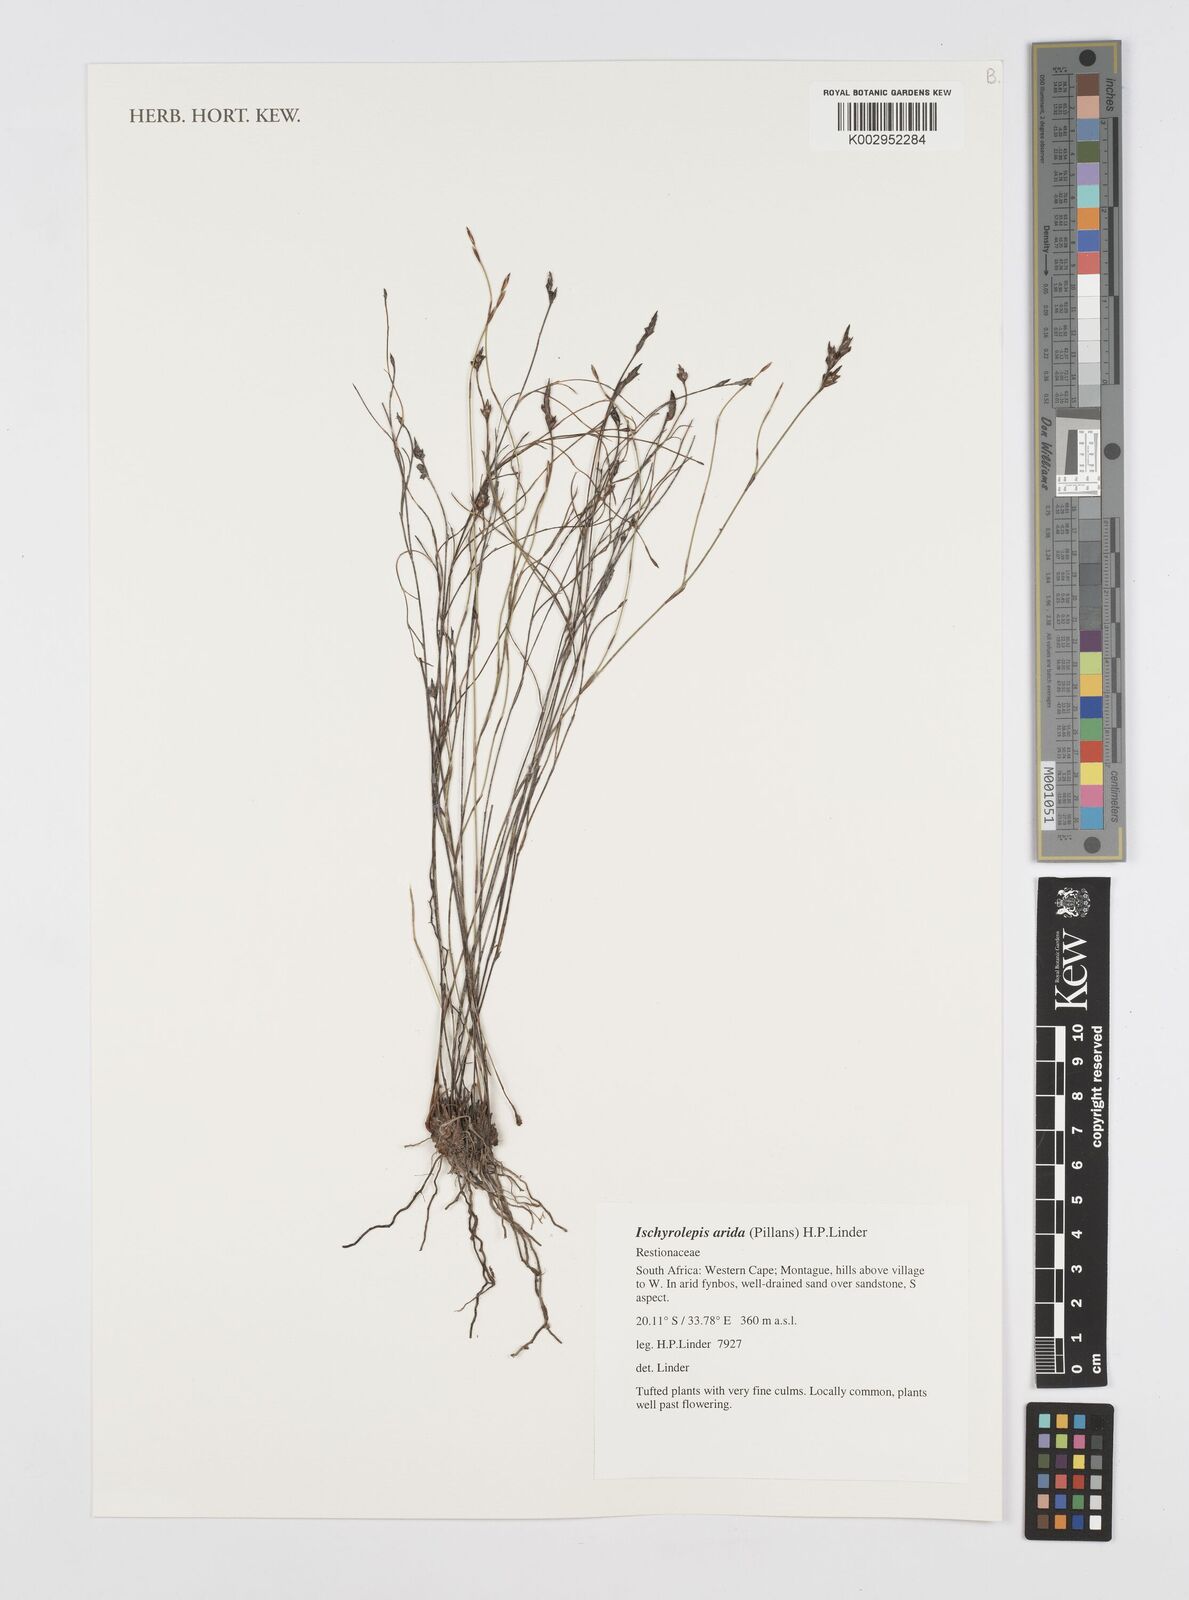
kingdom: Plantae
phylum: Tracheophyta
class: Liliopsida
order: Poales
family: Restionaceae
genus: Restio
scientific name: Restio aridus
